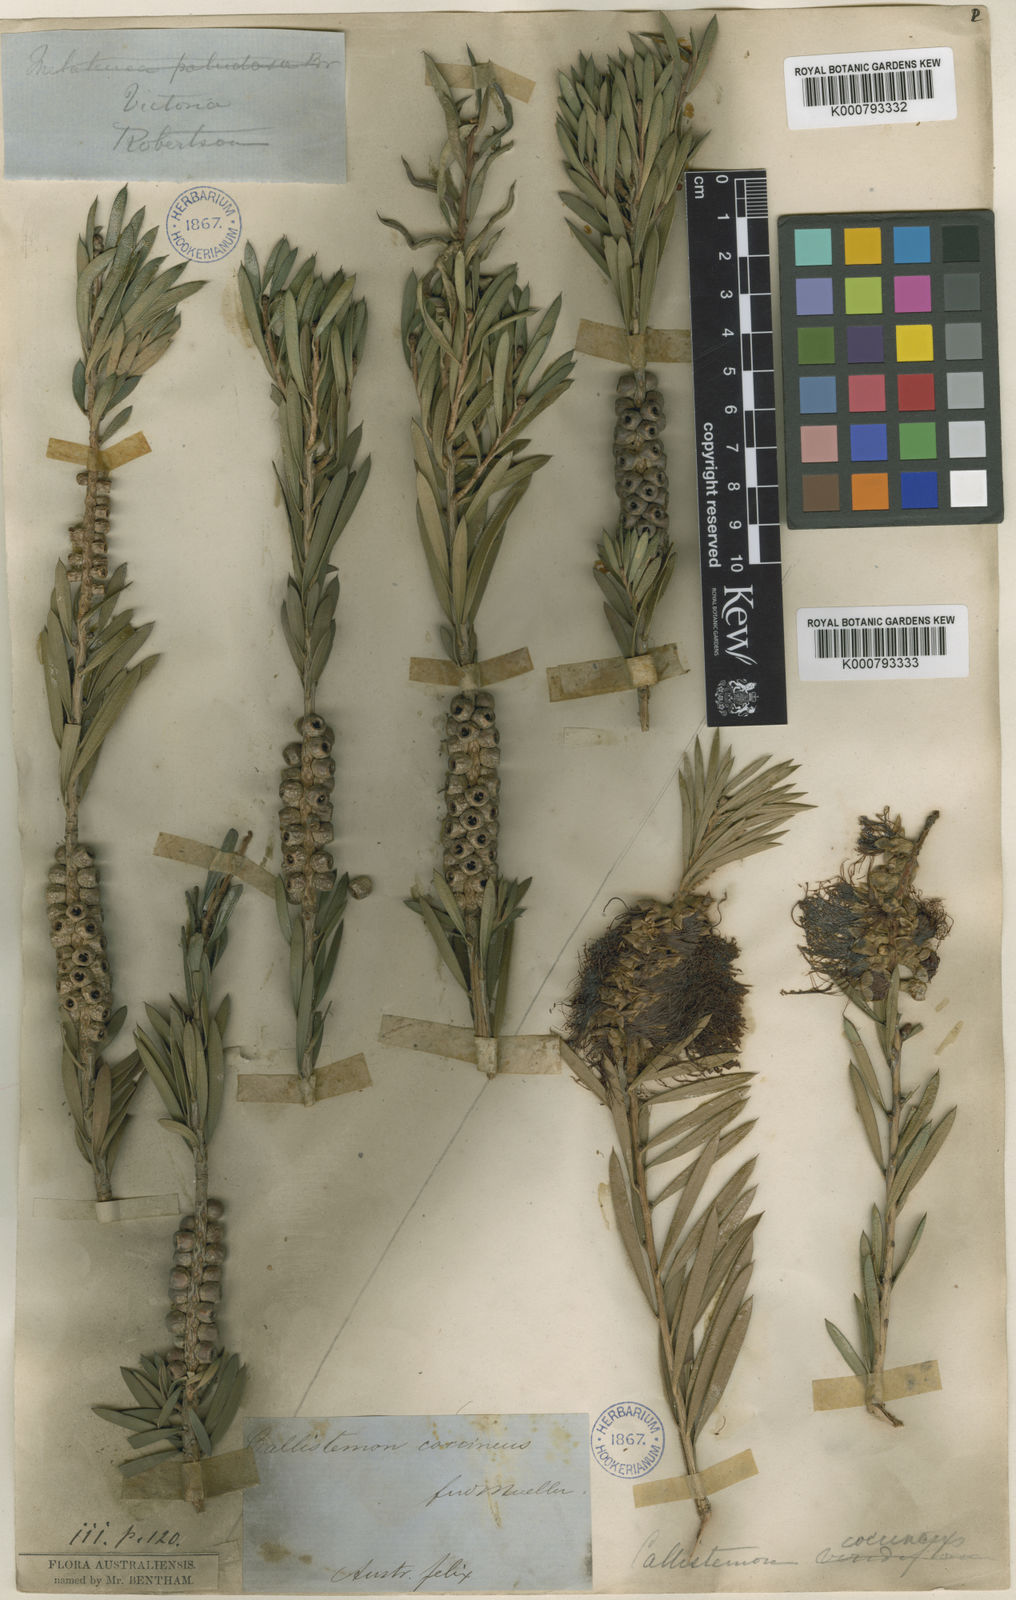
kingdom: Plantae
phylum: Tracheophyta
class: Magnoliopsida
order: Myrtales
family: Myrtaceae
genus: Callistemon
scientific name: Callistemon coccineus
